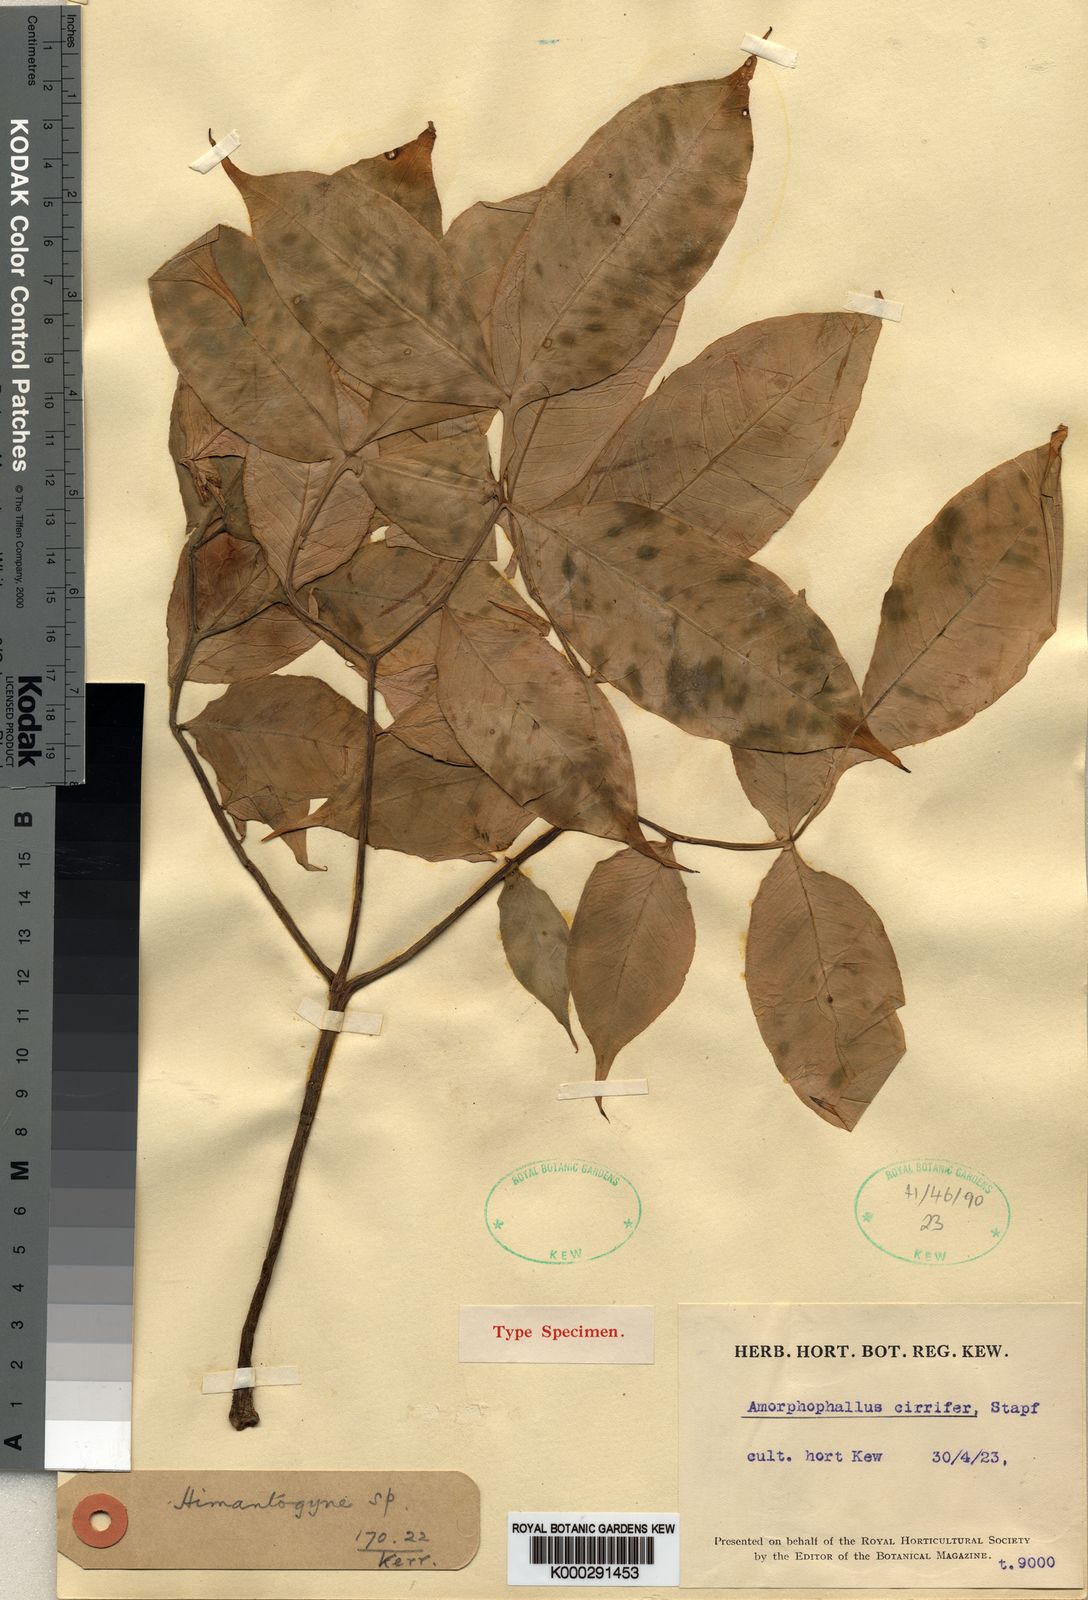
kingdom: Plantae
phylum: Tracheophyta
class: Liliopsida
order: Alismatales
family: Araceae
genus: Amorphophallus
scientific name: Amorphophallus cirrifer
